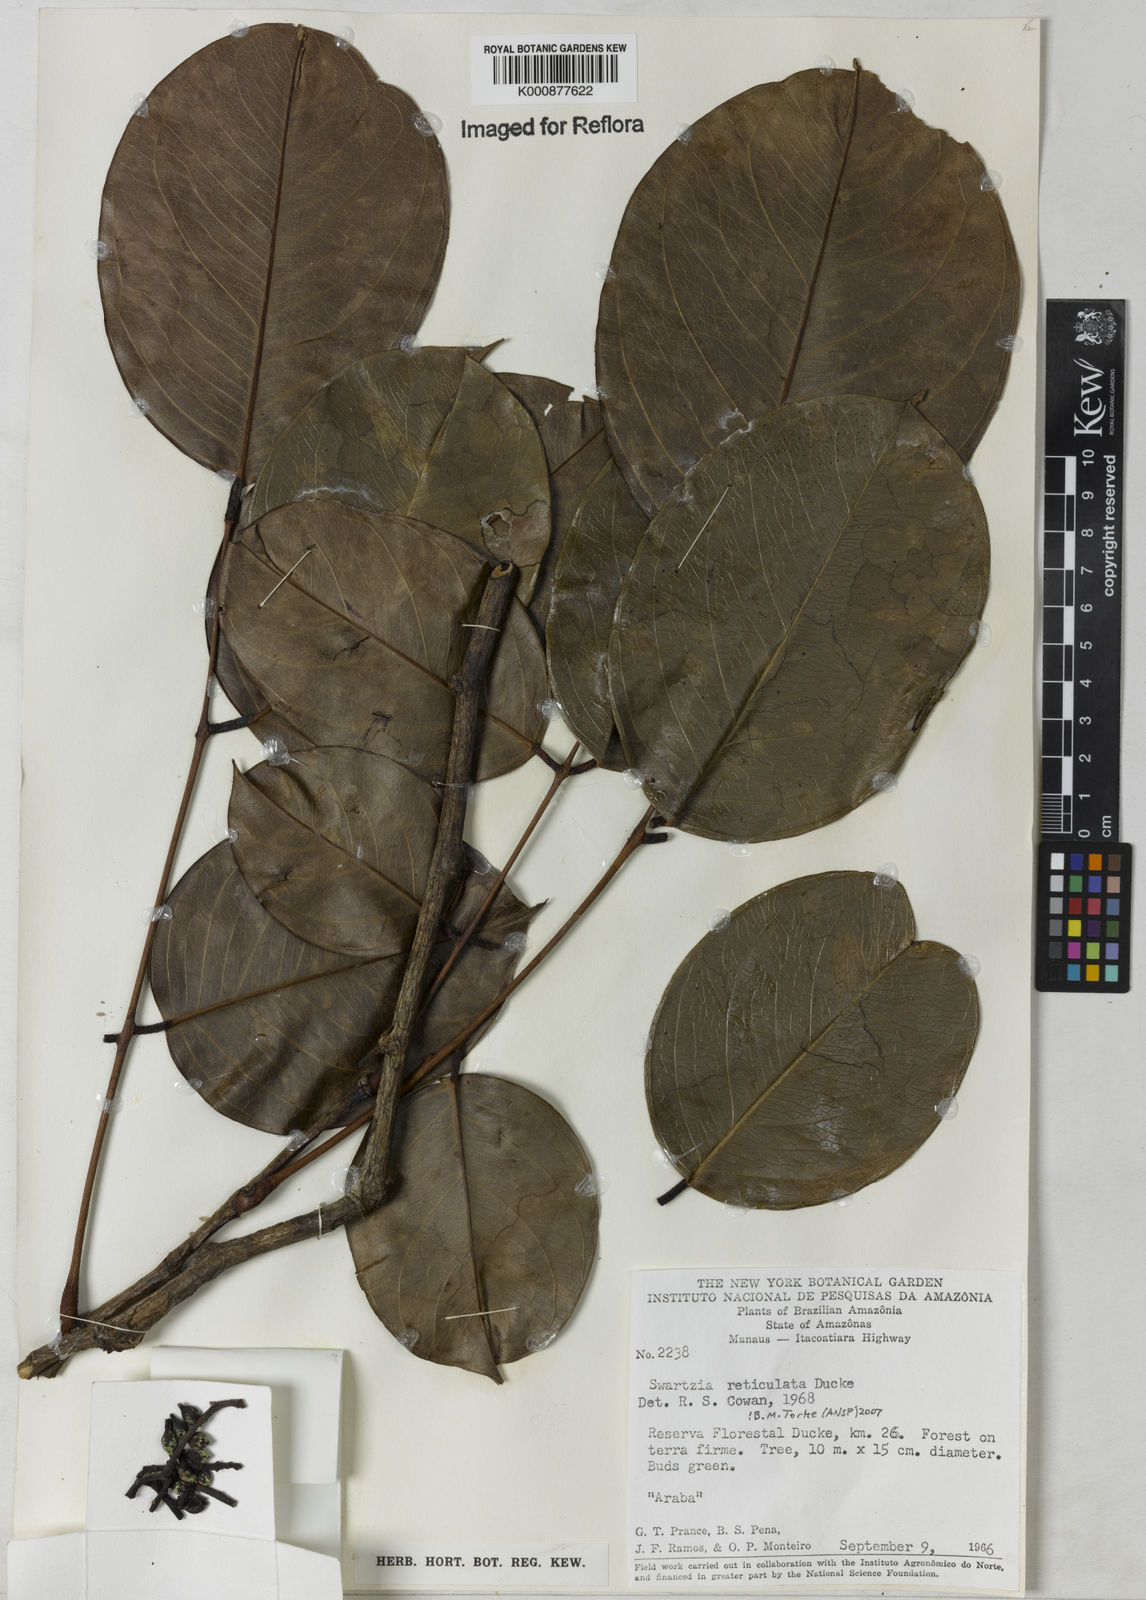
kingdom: Plantae
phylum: Tracheophyta
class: Magnoliopsida
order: Fabales
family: Fabaceae
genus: Swartzia
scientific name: Swartzia reticulata
